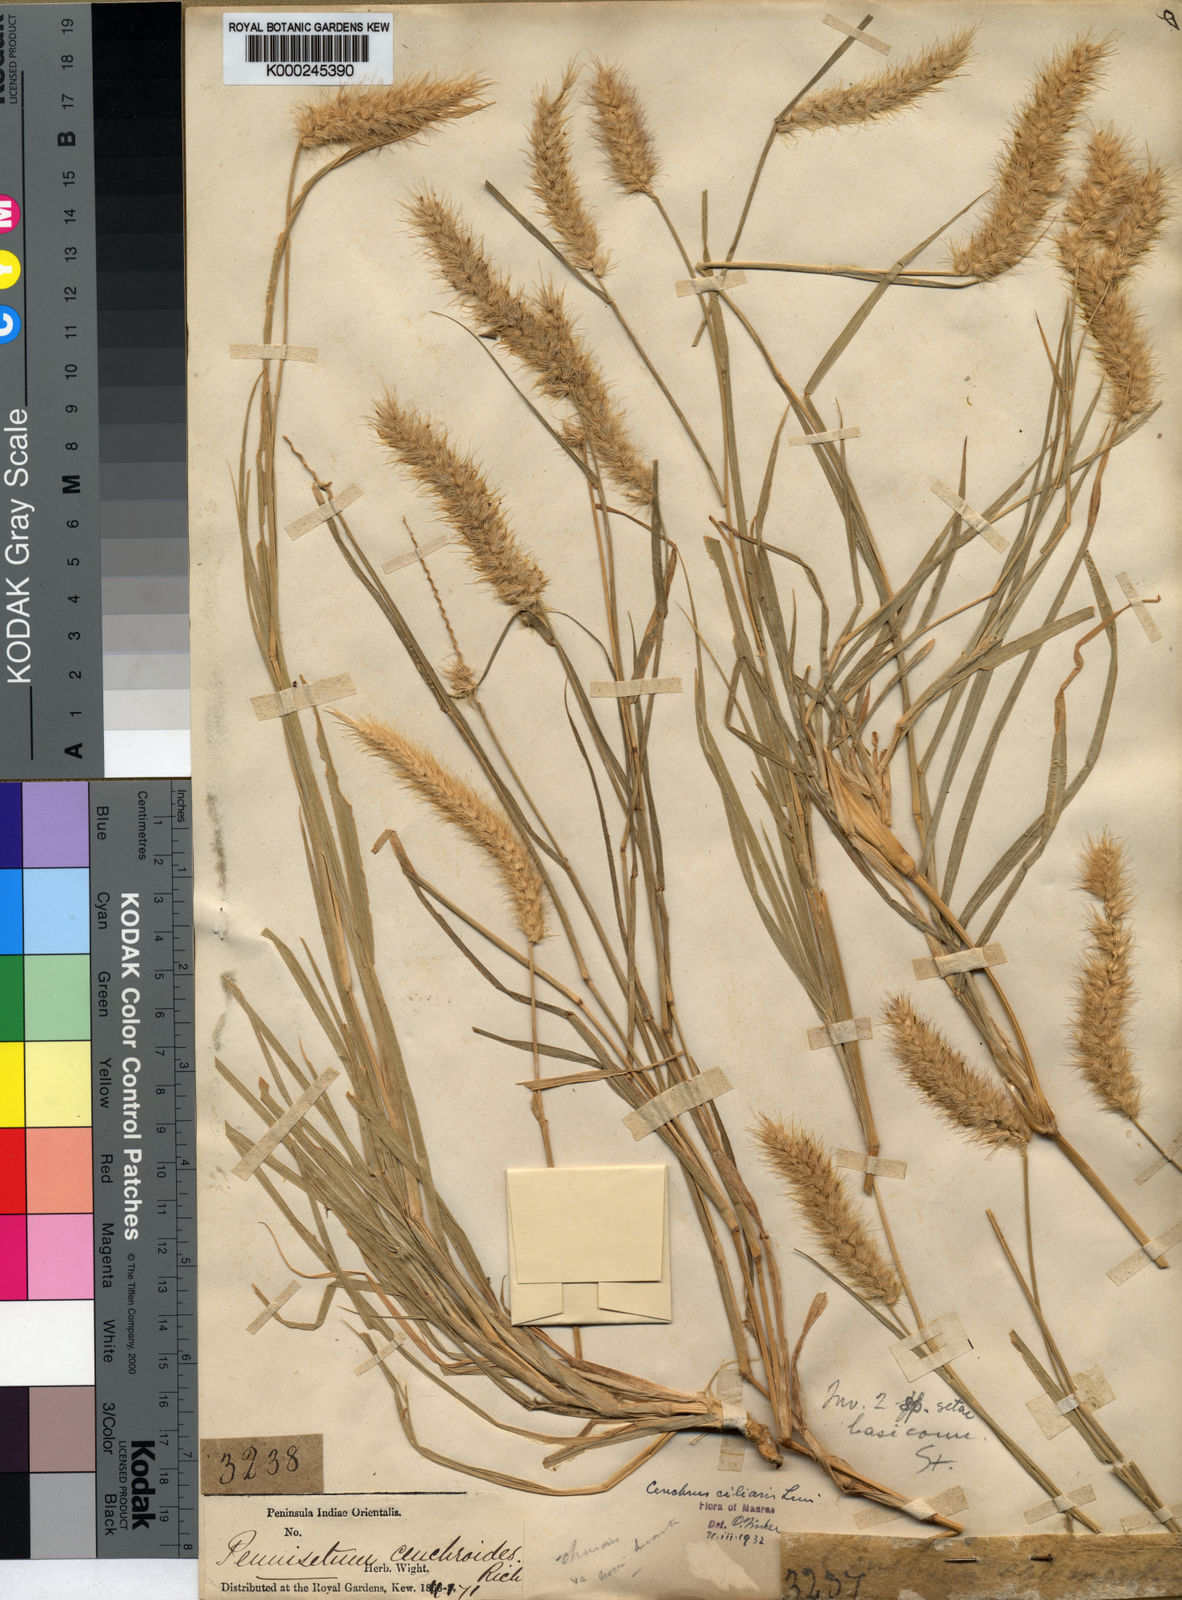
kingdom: Plantae
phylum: Tracheophyta
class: Liliopsida
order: Poales
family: Poaceae
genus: Cenchrus
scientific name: Cenchrus ciliaris
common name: Buffelgrass
